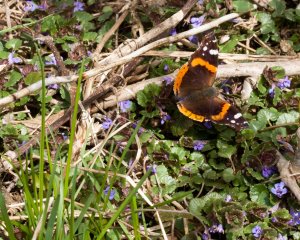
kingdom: Animalia
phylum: Arthropoda
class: Insecta
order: Lepidoptera
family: Nymphalidae
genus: Vanessa
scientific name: Vanessa atalanta
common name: Red Admiral
